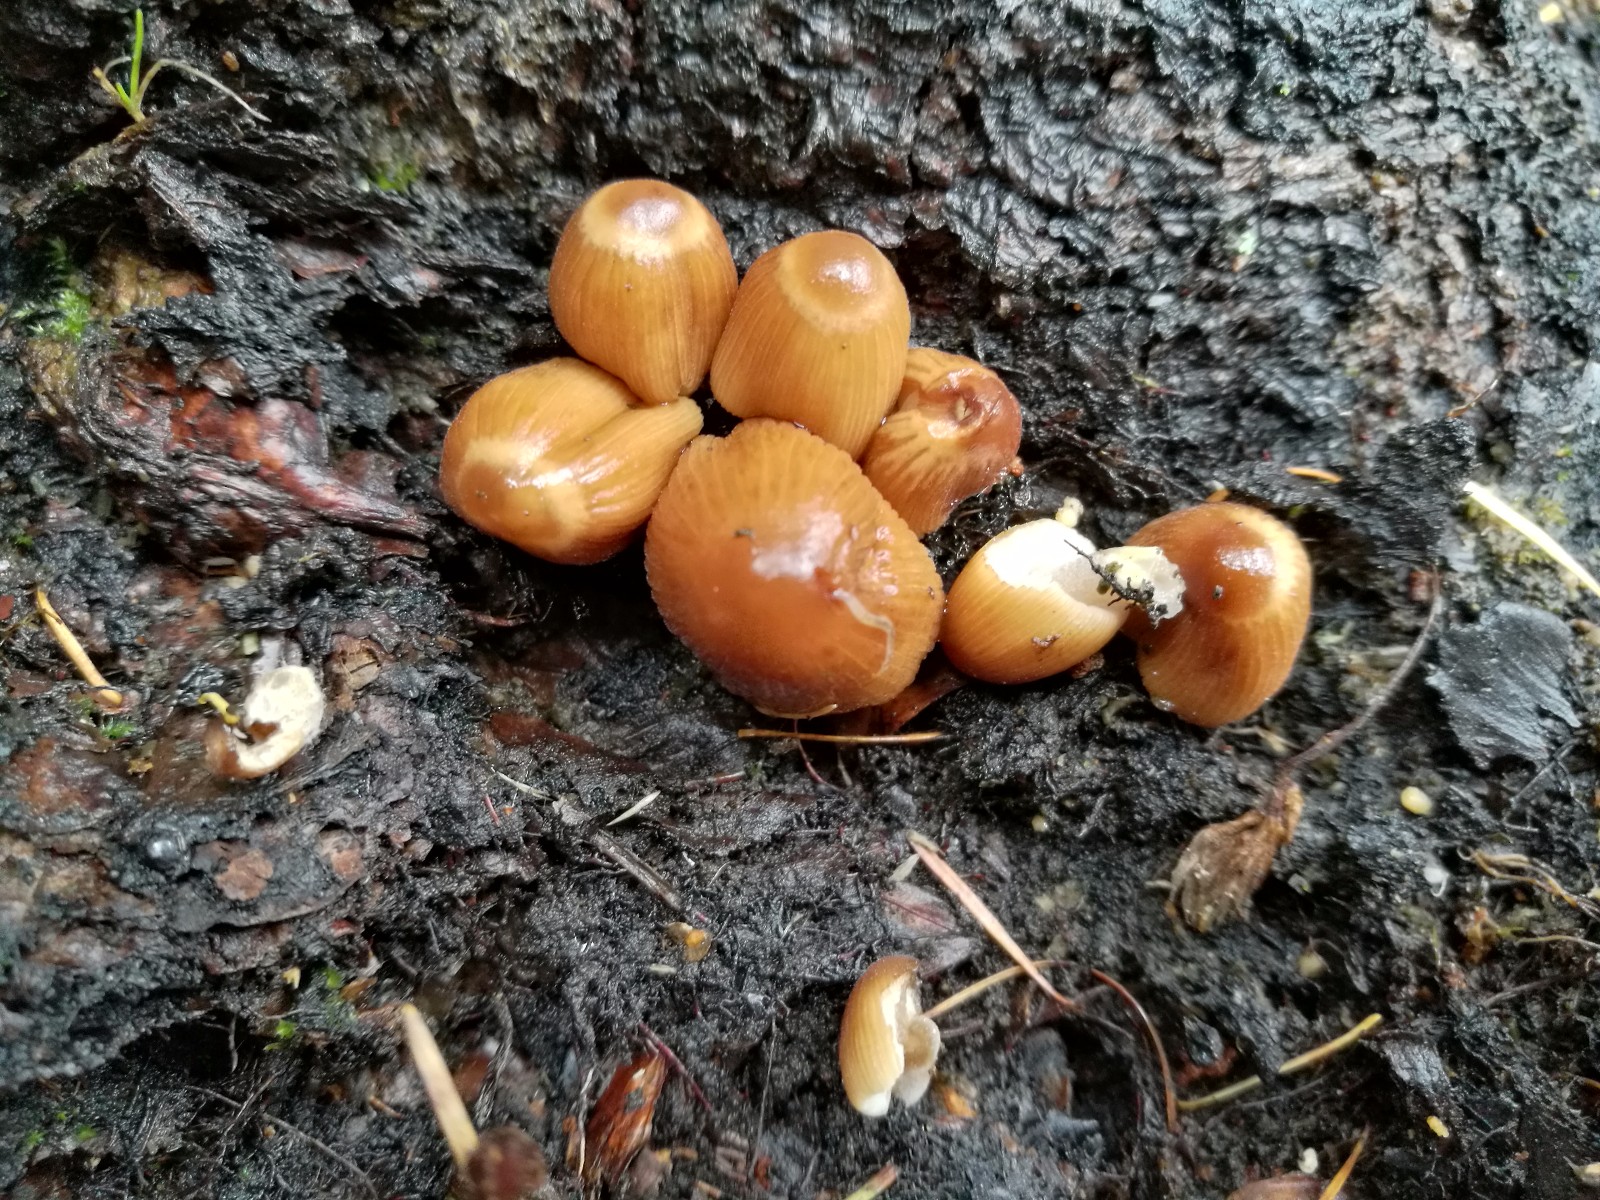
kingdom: Fungi
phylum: Basidiomycota
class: Agaricomycetes
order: Agaricales
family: Psathyrellaceae
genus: Tulosesus
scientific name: Tulosesus angulatus
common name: kul-blækhat
